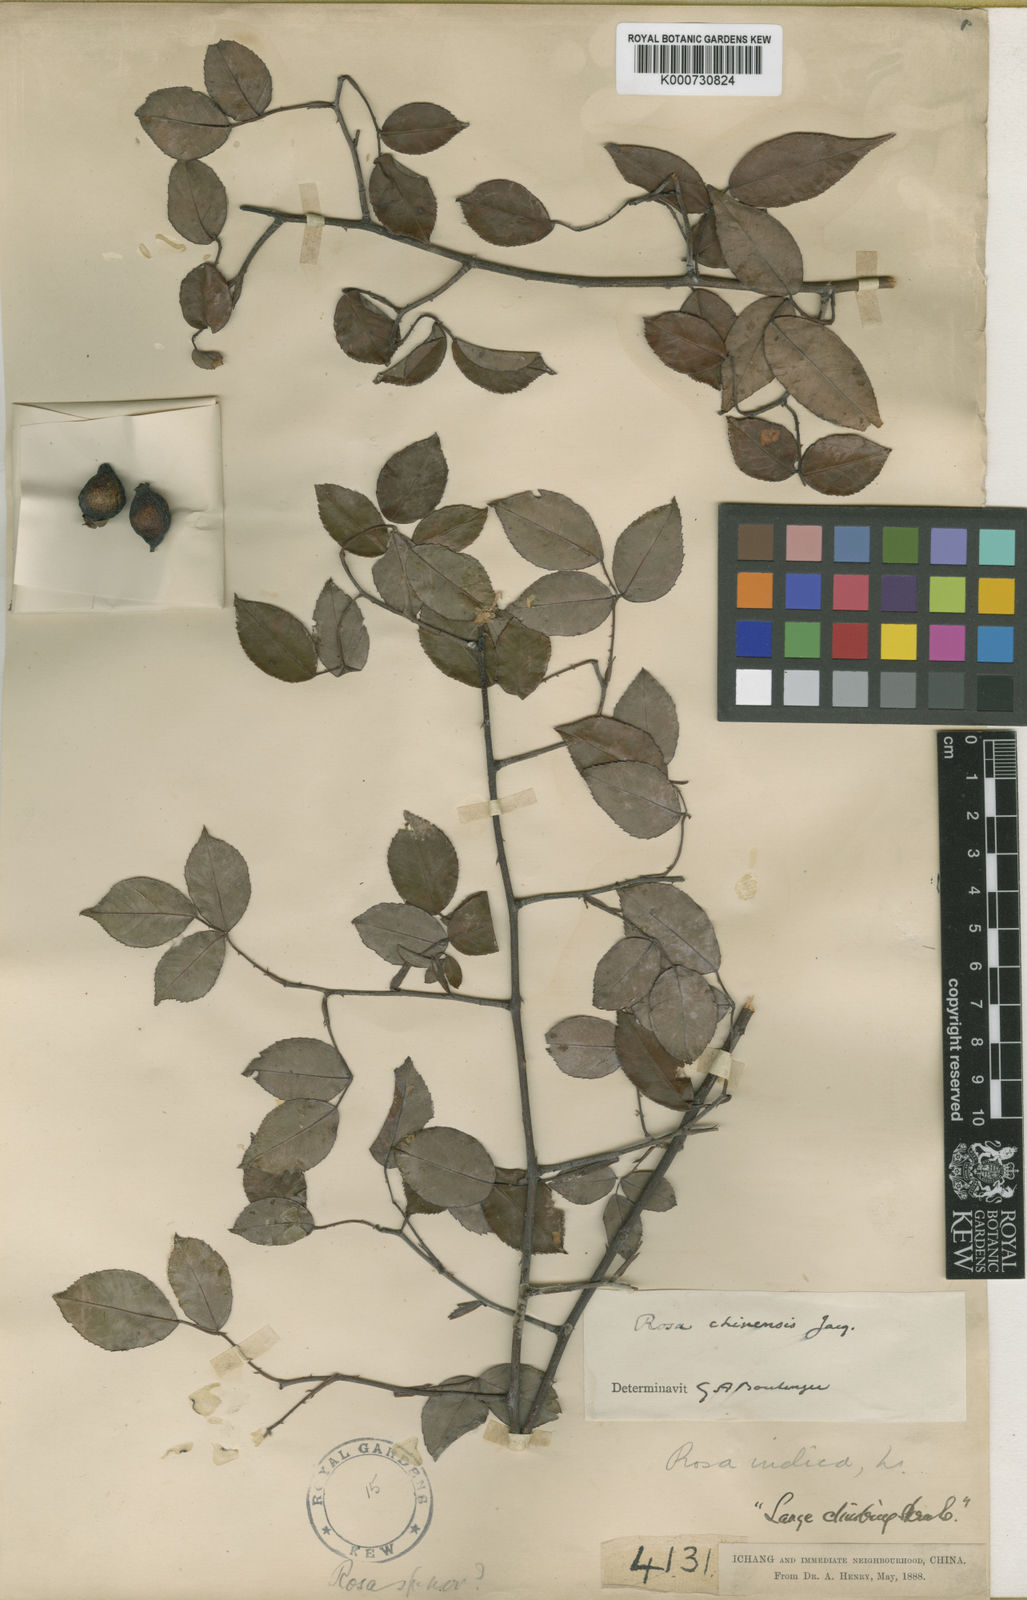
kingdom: Plantae
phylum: Tracheophyta
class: Magnoliopsida
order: Rosales
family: Rosaceae
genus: Rosa
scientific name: Rosa chinensis
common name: China rose
